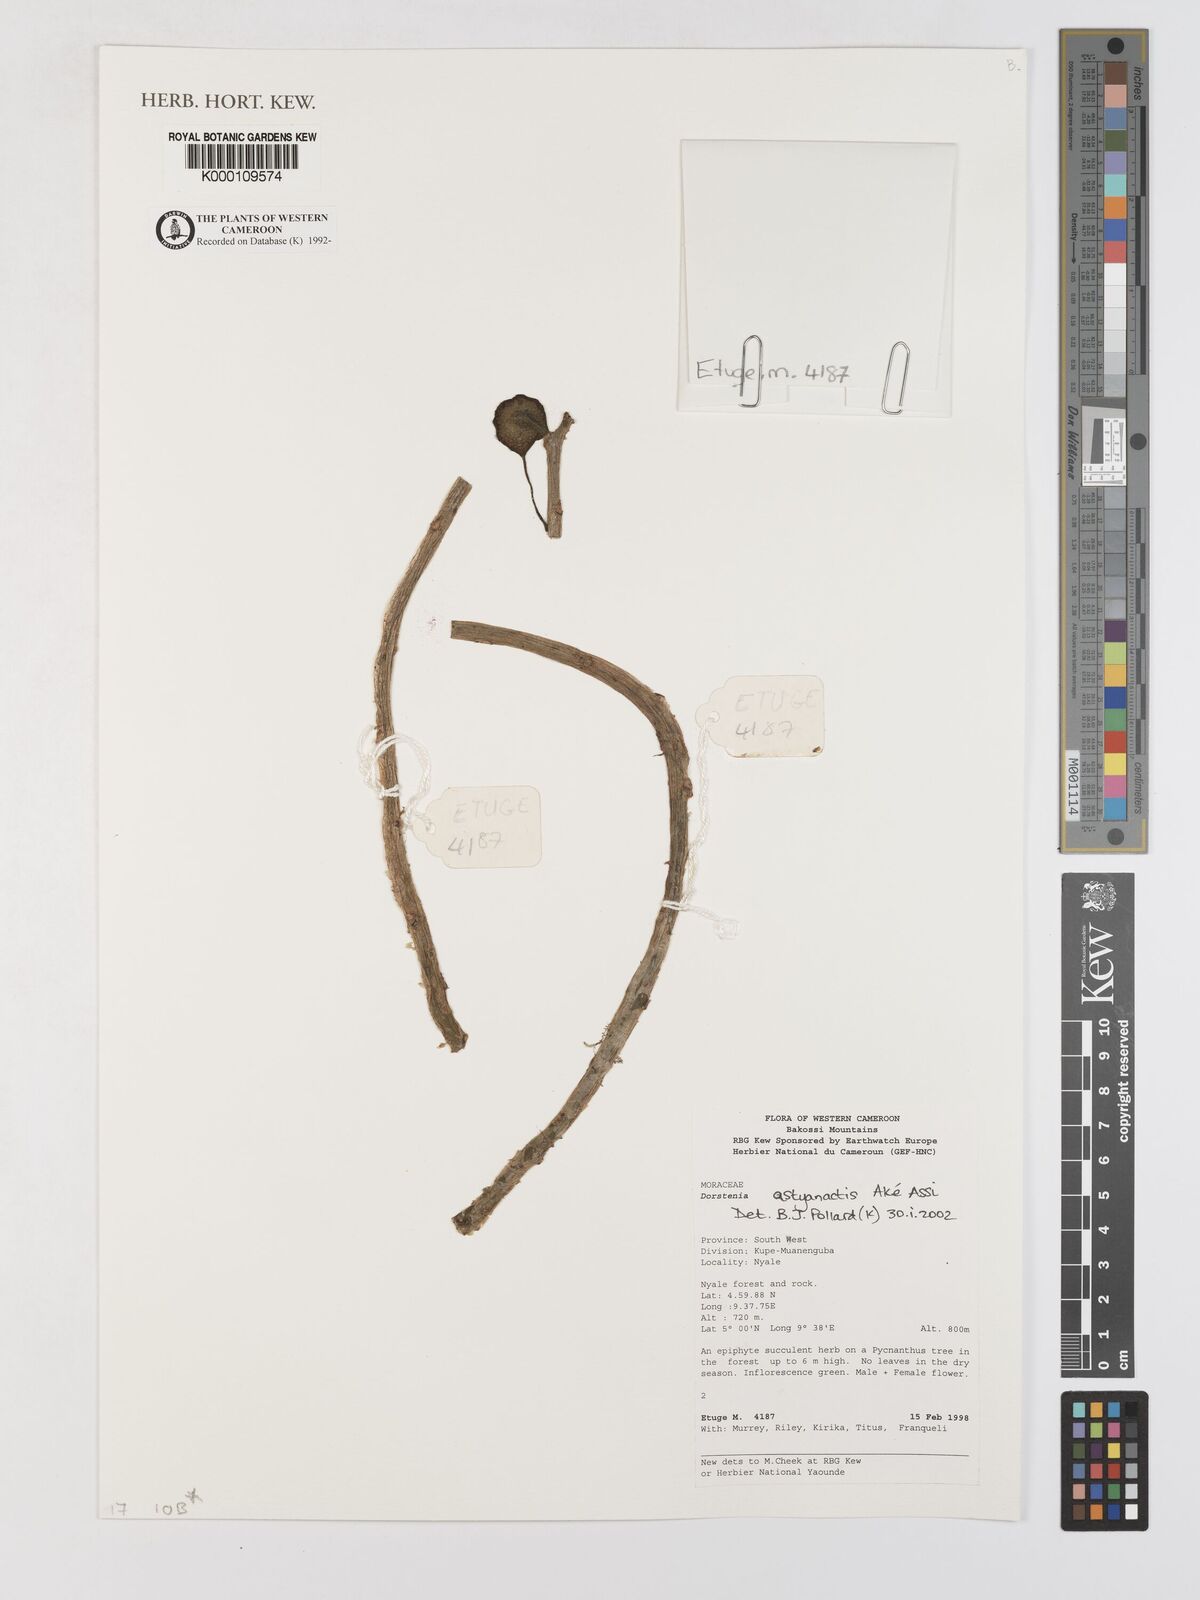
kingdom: Plantae
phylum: Tracheophyta
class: Magnoliopsida
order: Rosales
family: Moraceae
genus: Dorstenia
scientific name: Dorstenia
